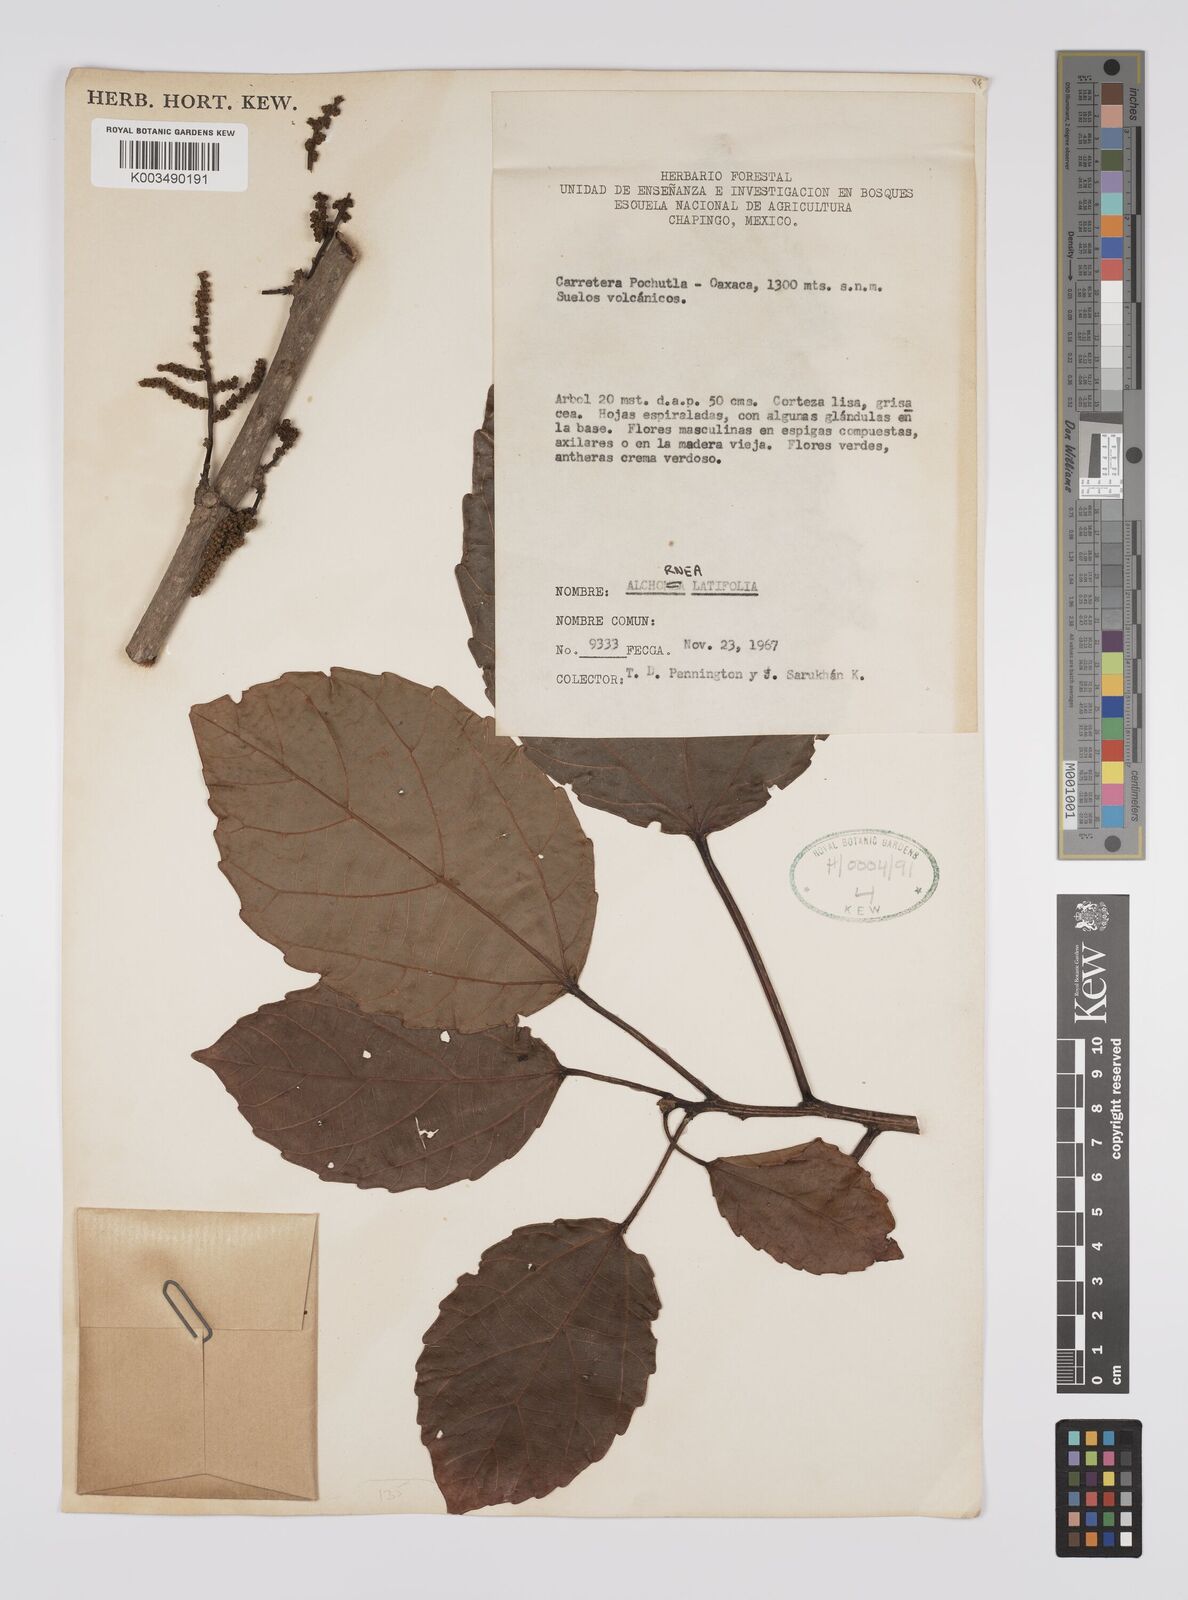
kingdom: Plantae
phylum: Tracheophyta
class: Magnoliopsida
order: Malpighiales
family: Euphorbiaceae
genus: Alchornea
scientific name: Alchornea latifolia
